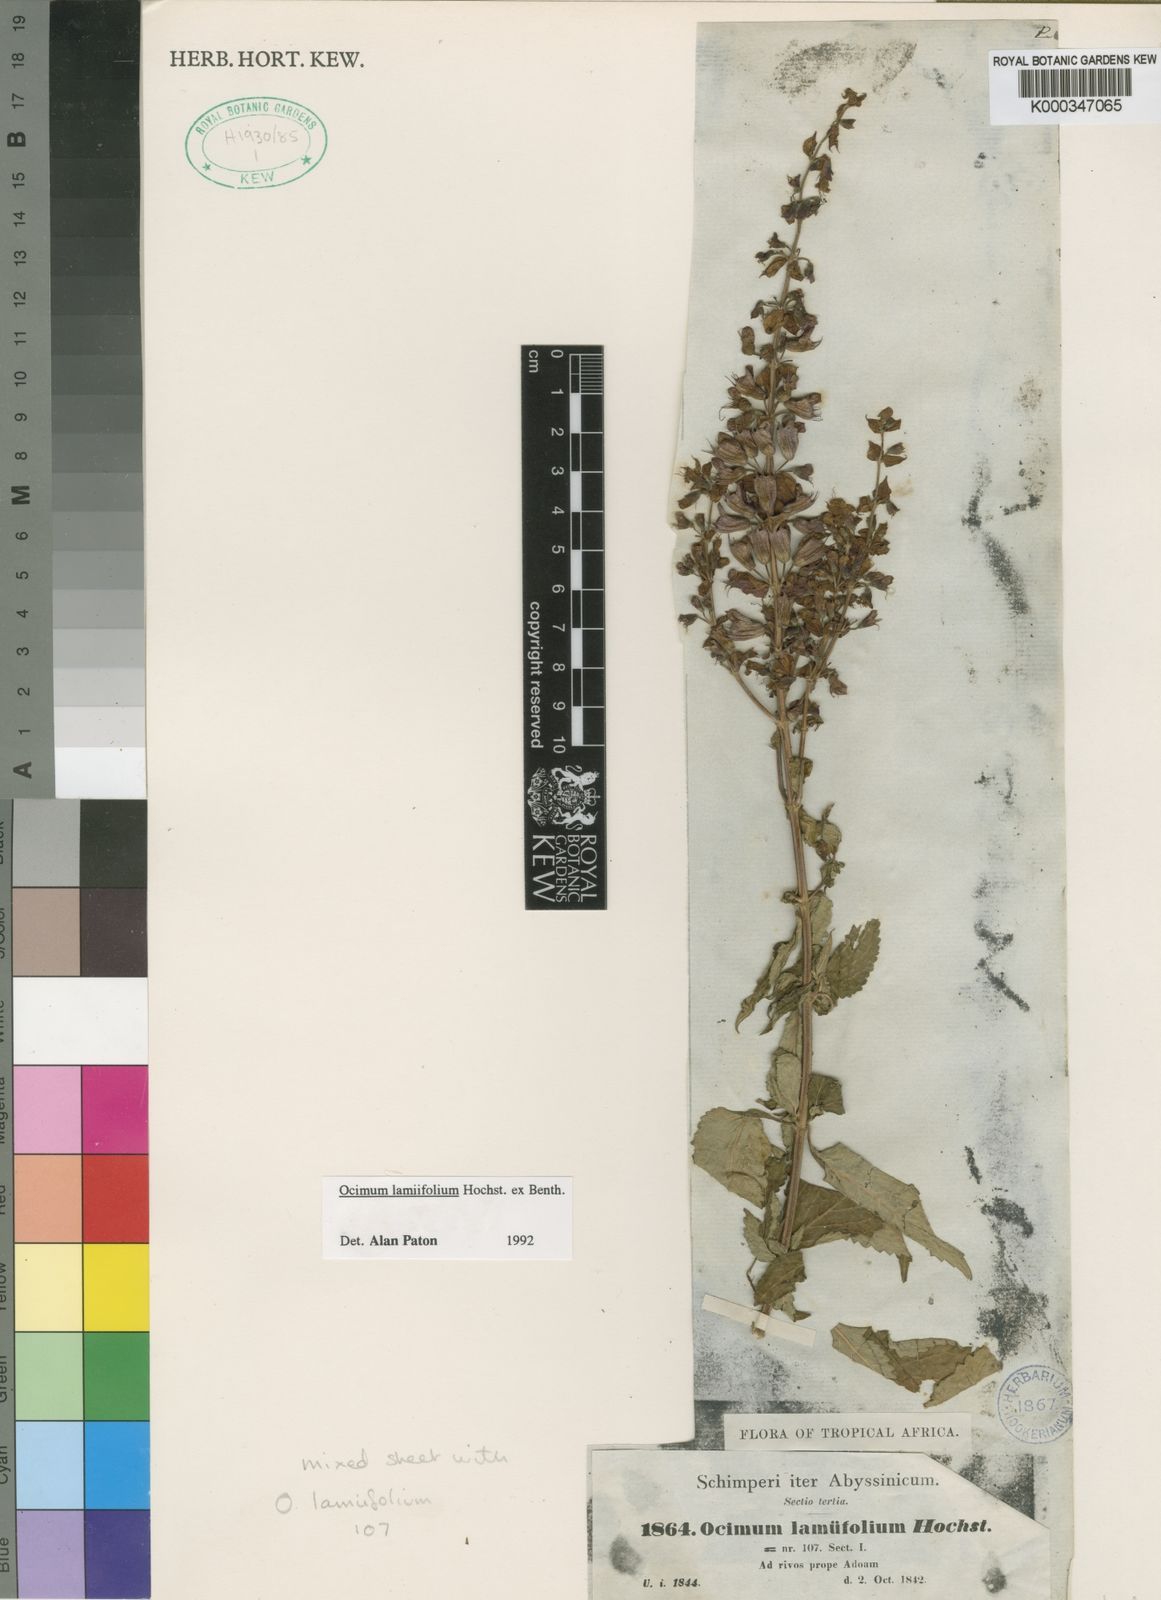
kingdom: Plantae
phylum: Tracheophyta
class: Magnoliopsida
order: Lamiales
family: Lamiaceae
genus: Ocimum
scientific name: Ocimum lamiifolium
